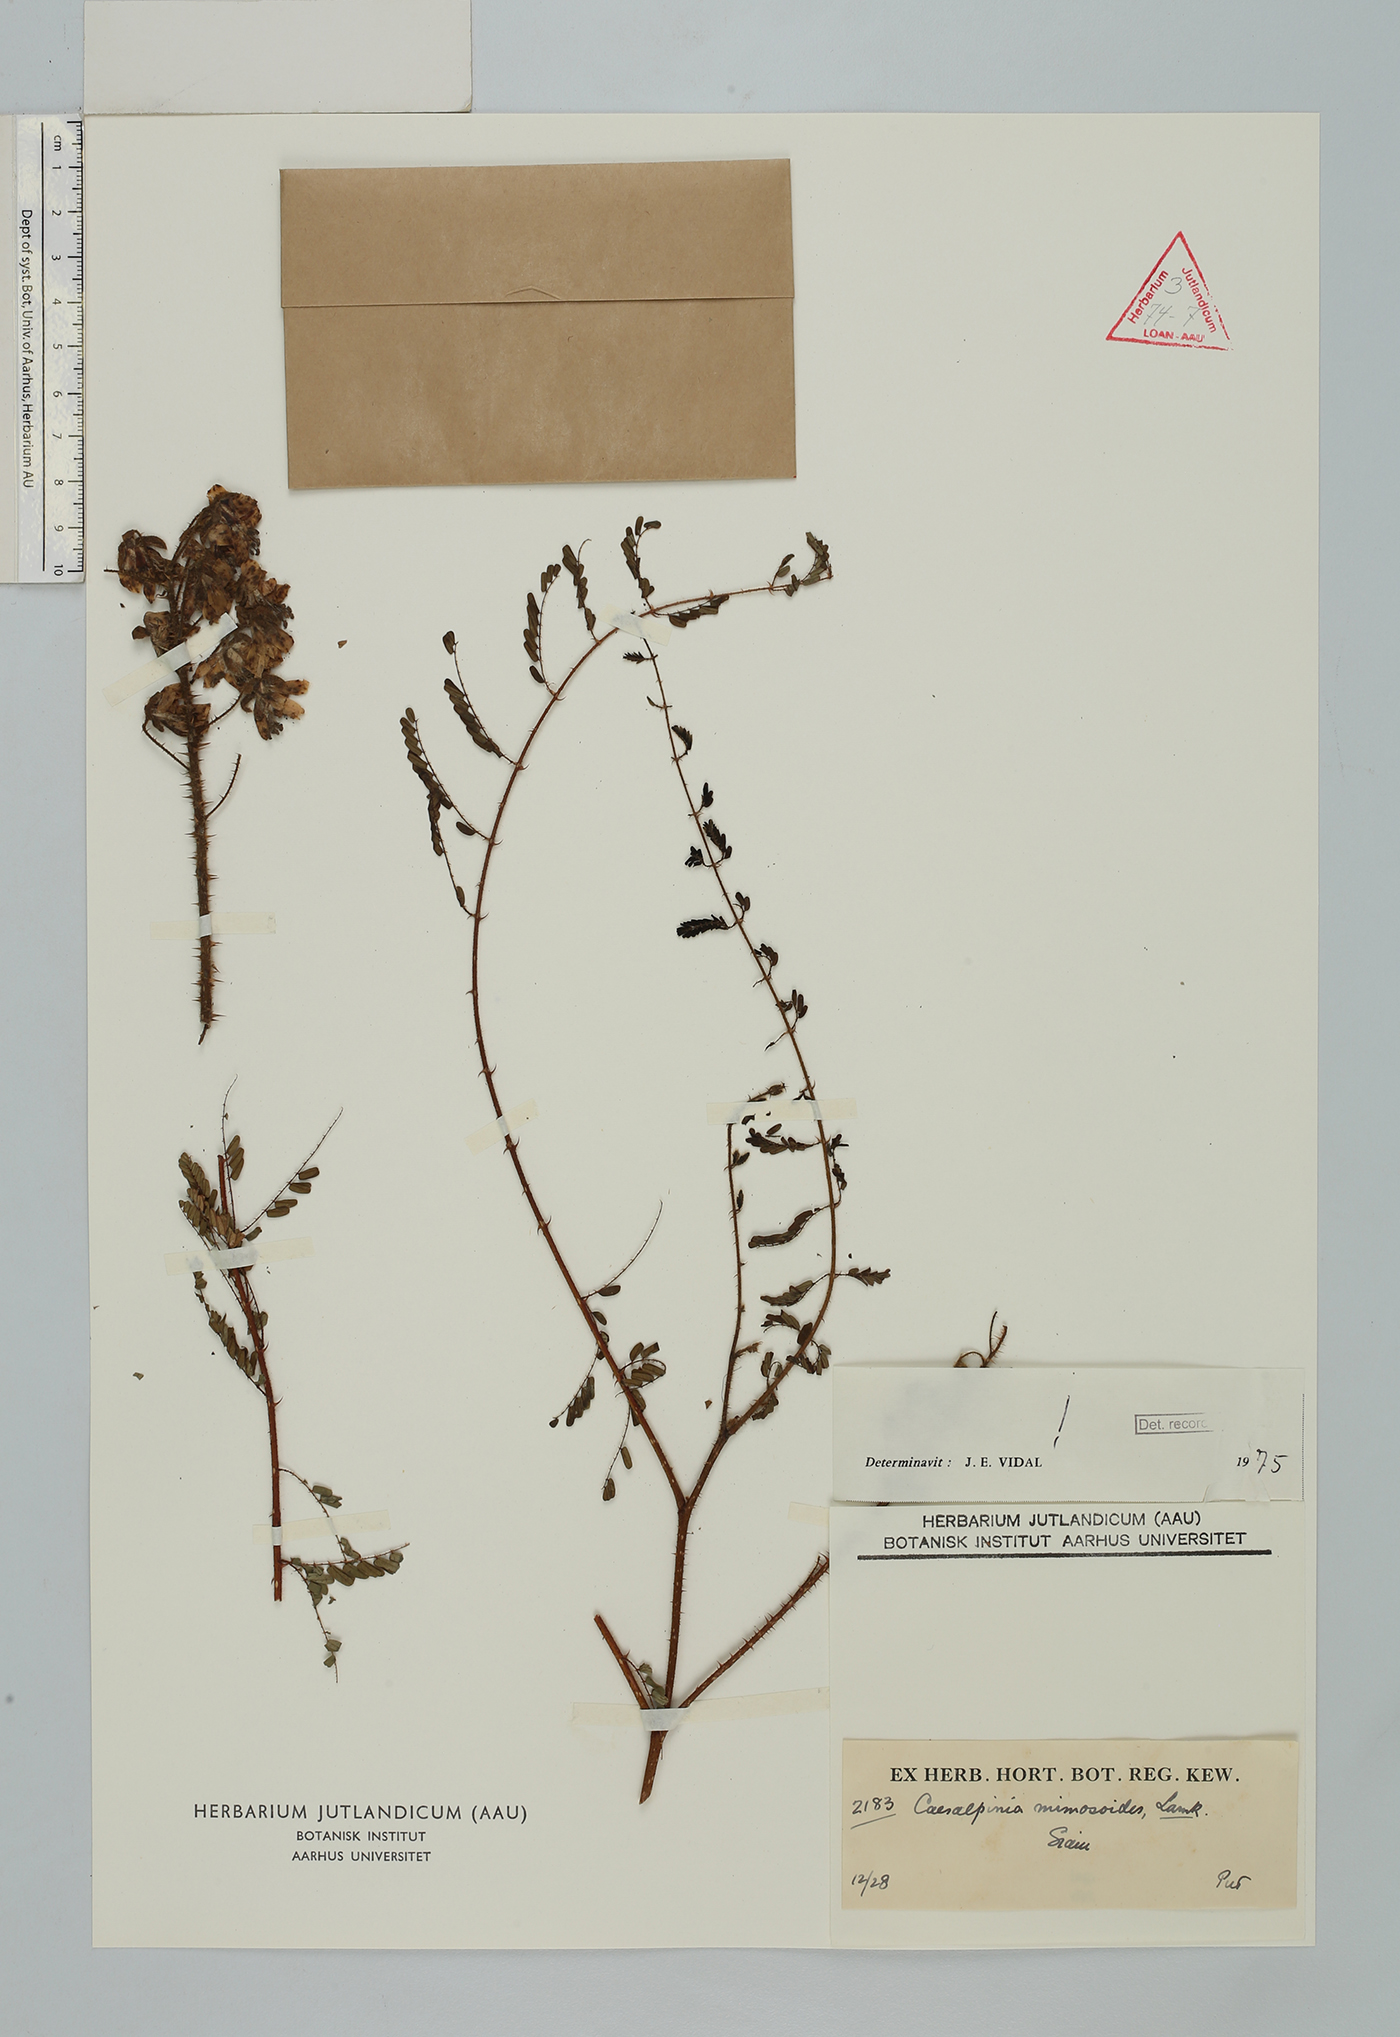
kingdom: Plantae
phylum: Tracheophyta
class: Magnoliopsida
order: Fabales
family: Fabaceae
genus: Hultholia
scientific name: Hultholia mimosoides
